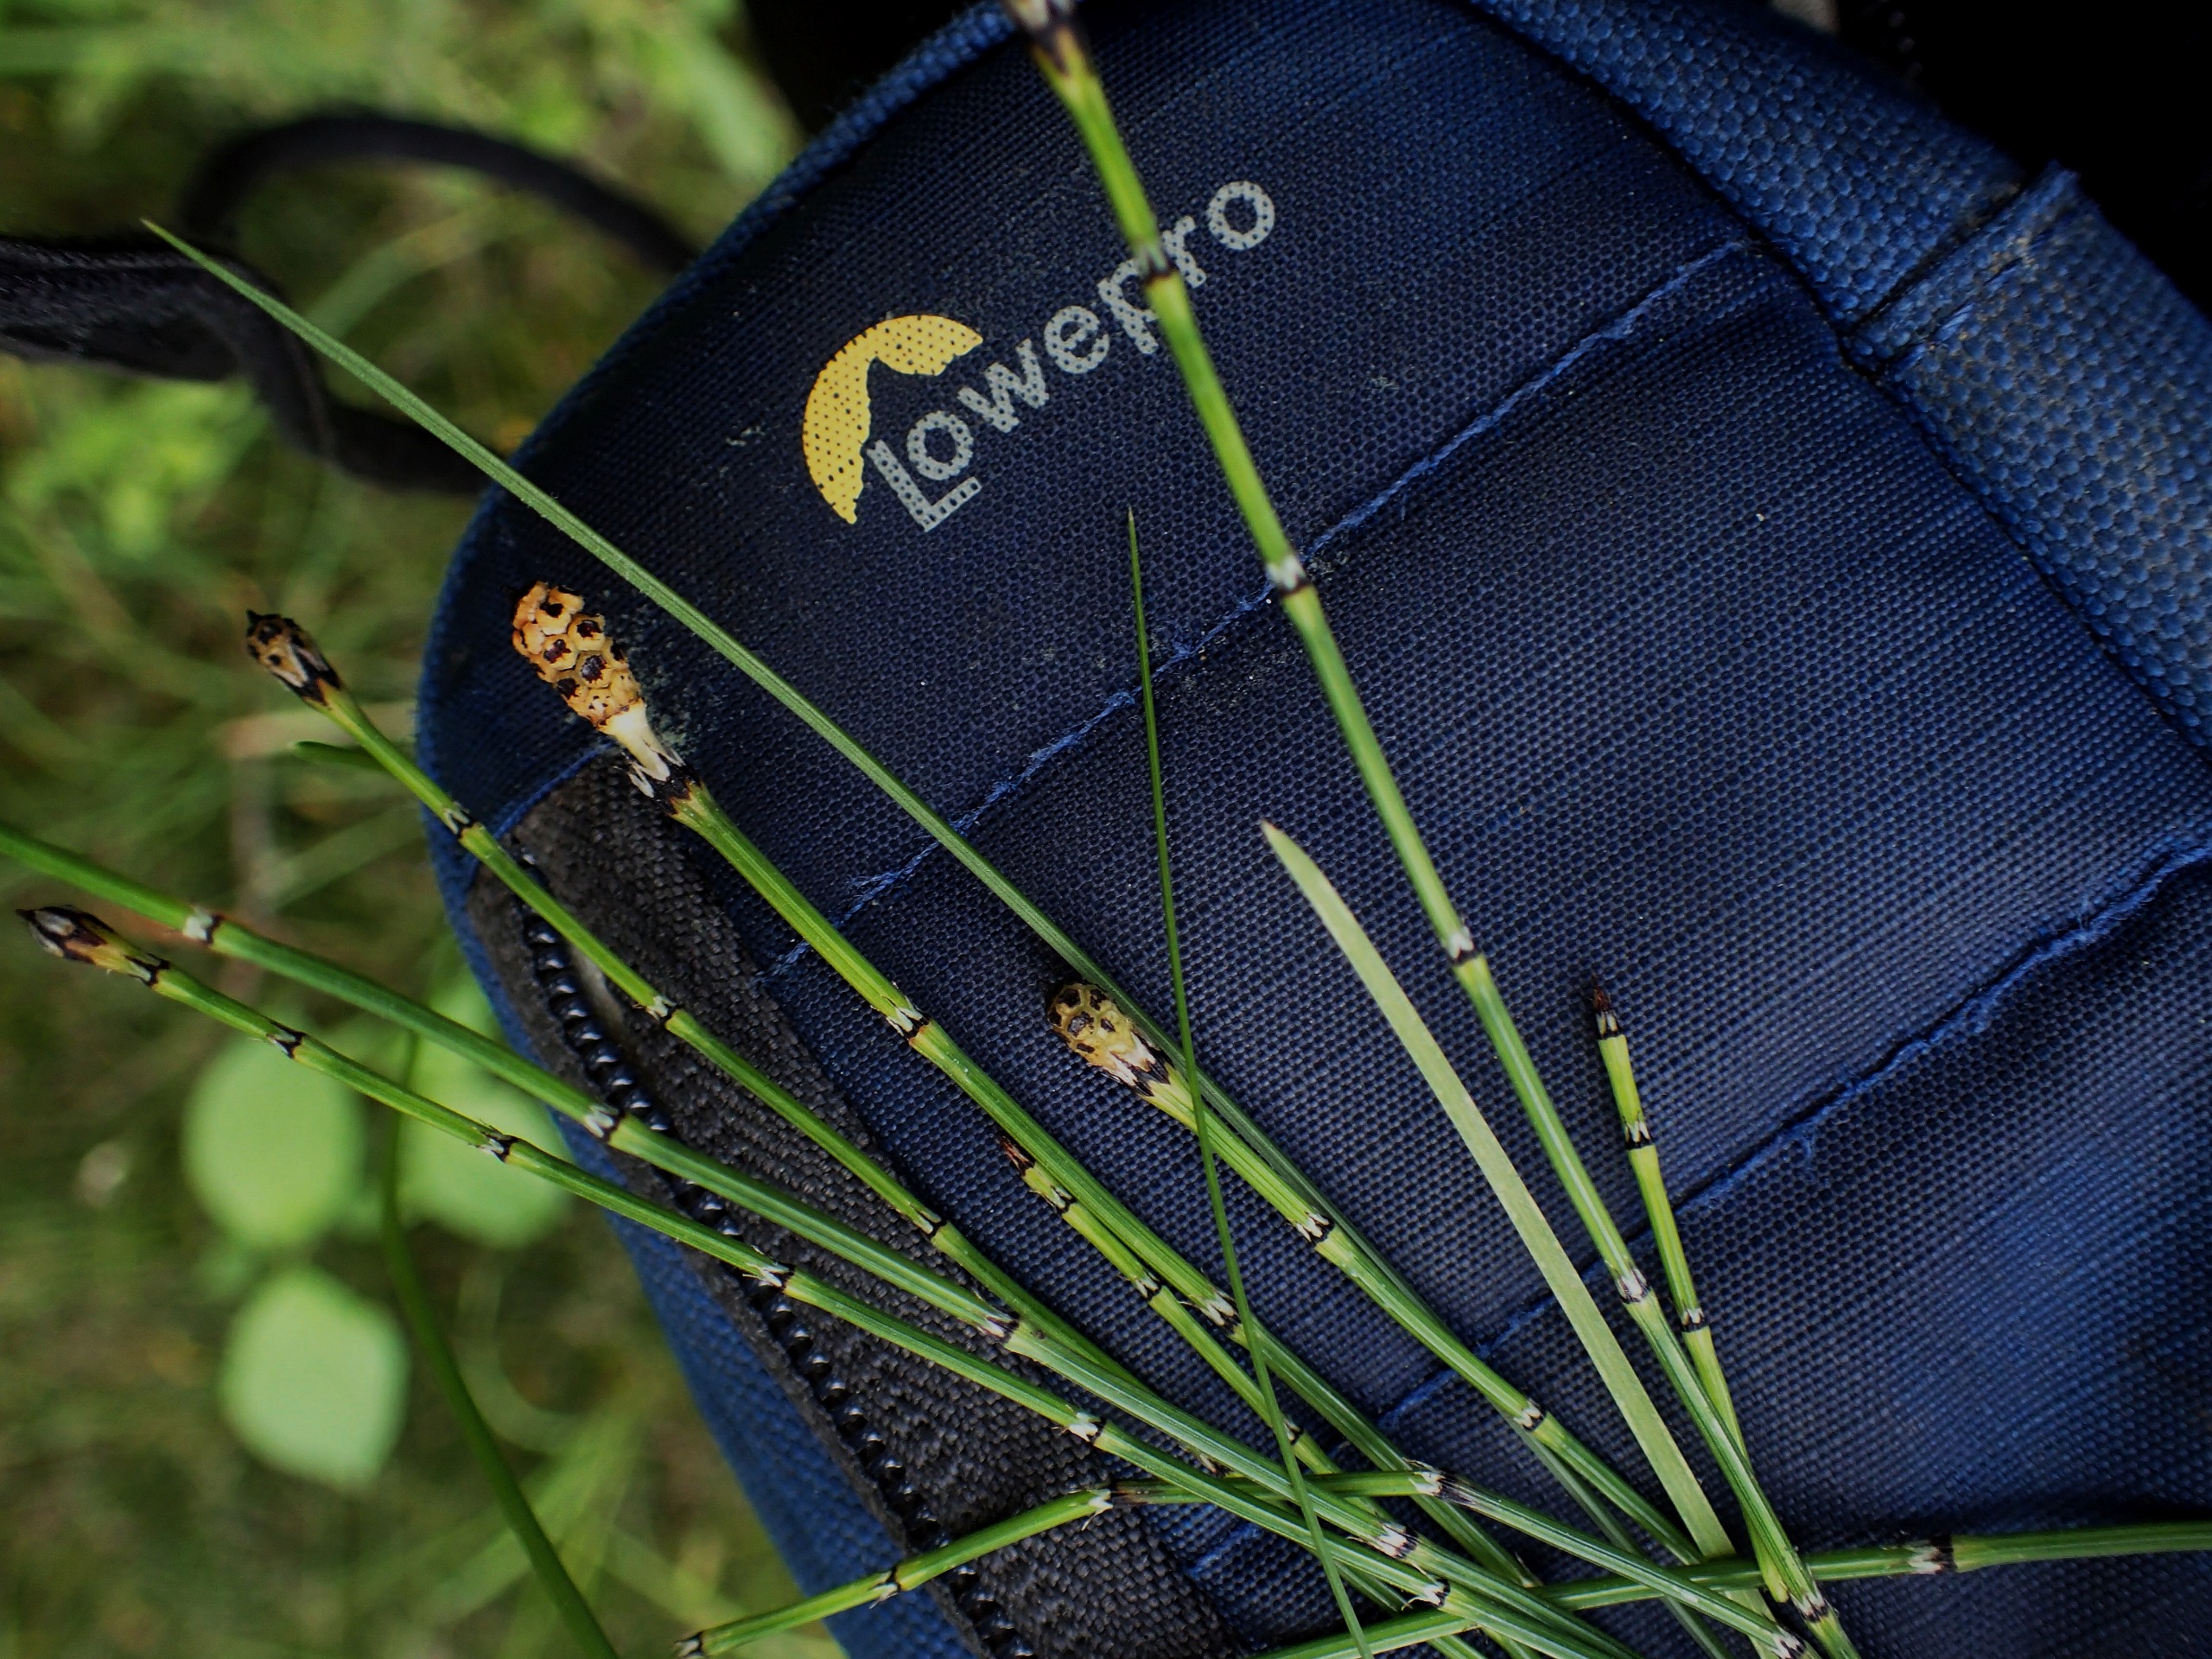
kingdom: Plantae
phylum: Tracheophyta
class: Polypodiopsida
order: Equisetales
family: Equisetaceae
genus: Equisetum
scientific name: Equisetum variegatum
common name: Liden padderok
